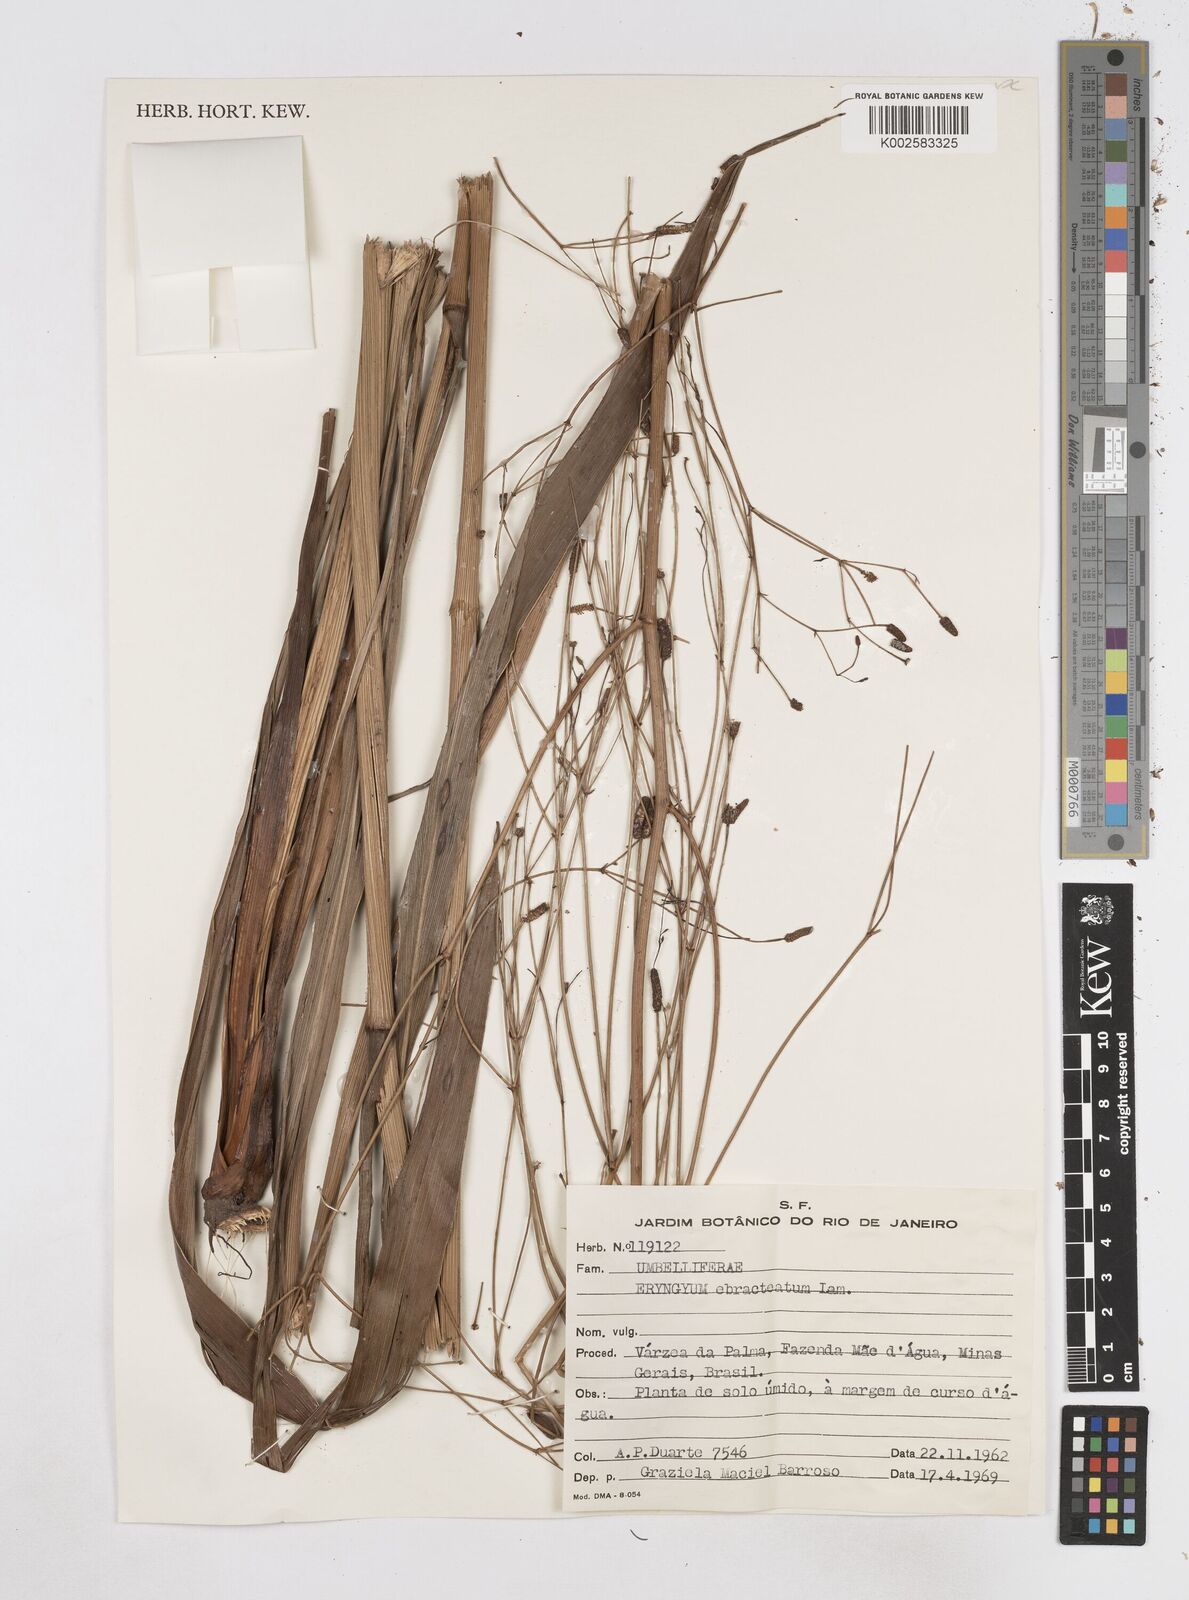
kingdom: Plantae
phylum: Tracheophyta
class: Magnoliopsida
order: Apiales
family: Apiaceae
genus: Eryngium
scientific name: Eryngium ebracteatum
